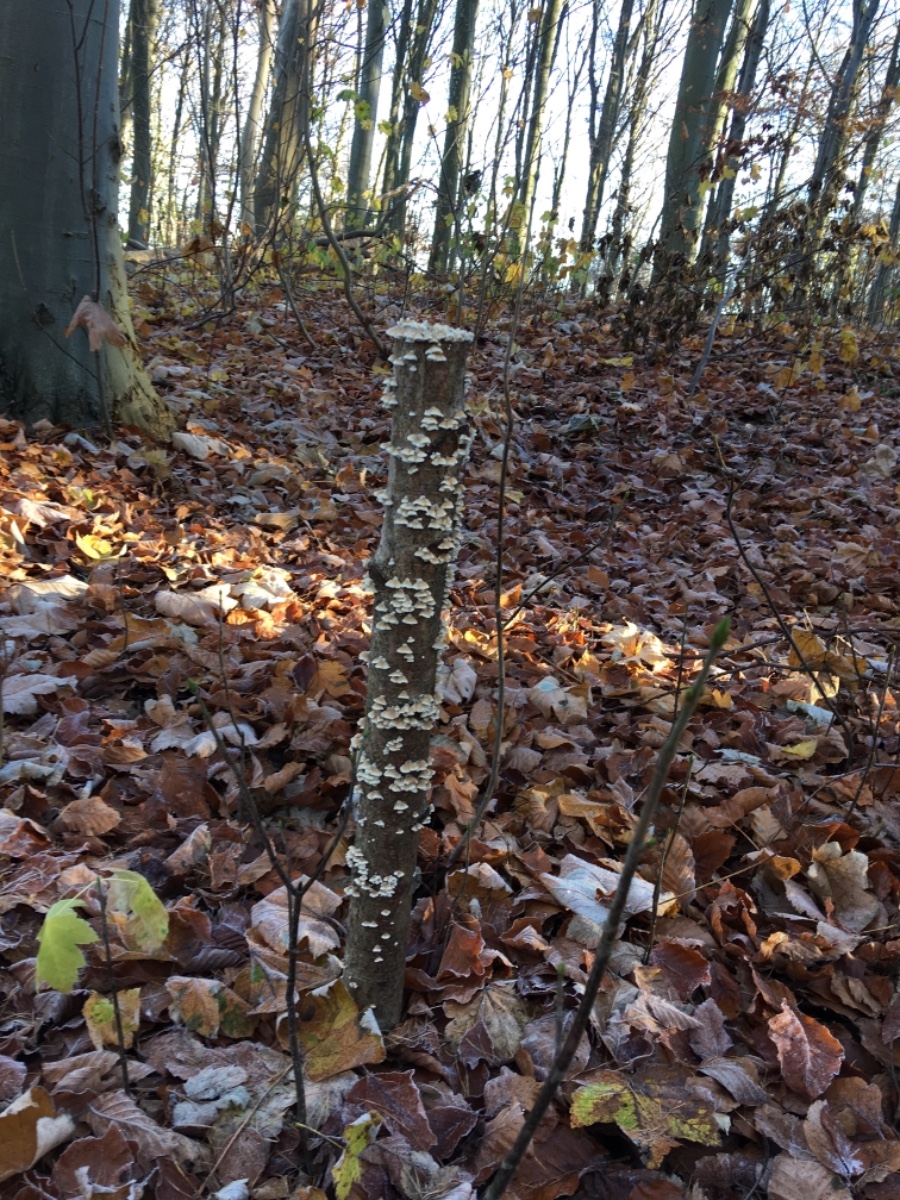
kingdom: Fungi
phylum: Basidiomycota
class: Agaricomycetes
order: Amylocorticiales
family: Amylocorticiaceae
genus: Plicaturopsis
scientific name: Plicaturopsis crispa
